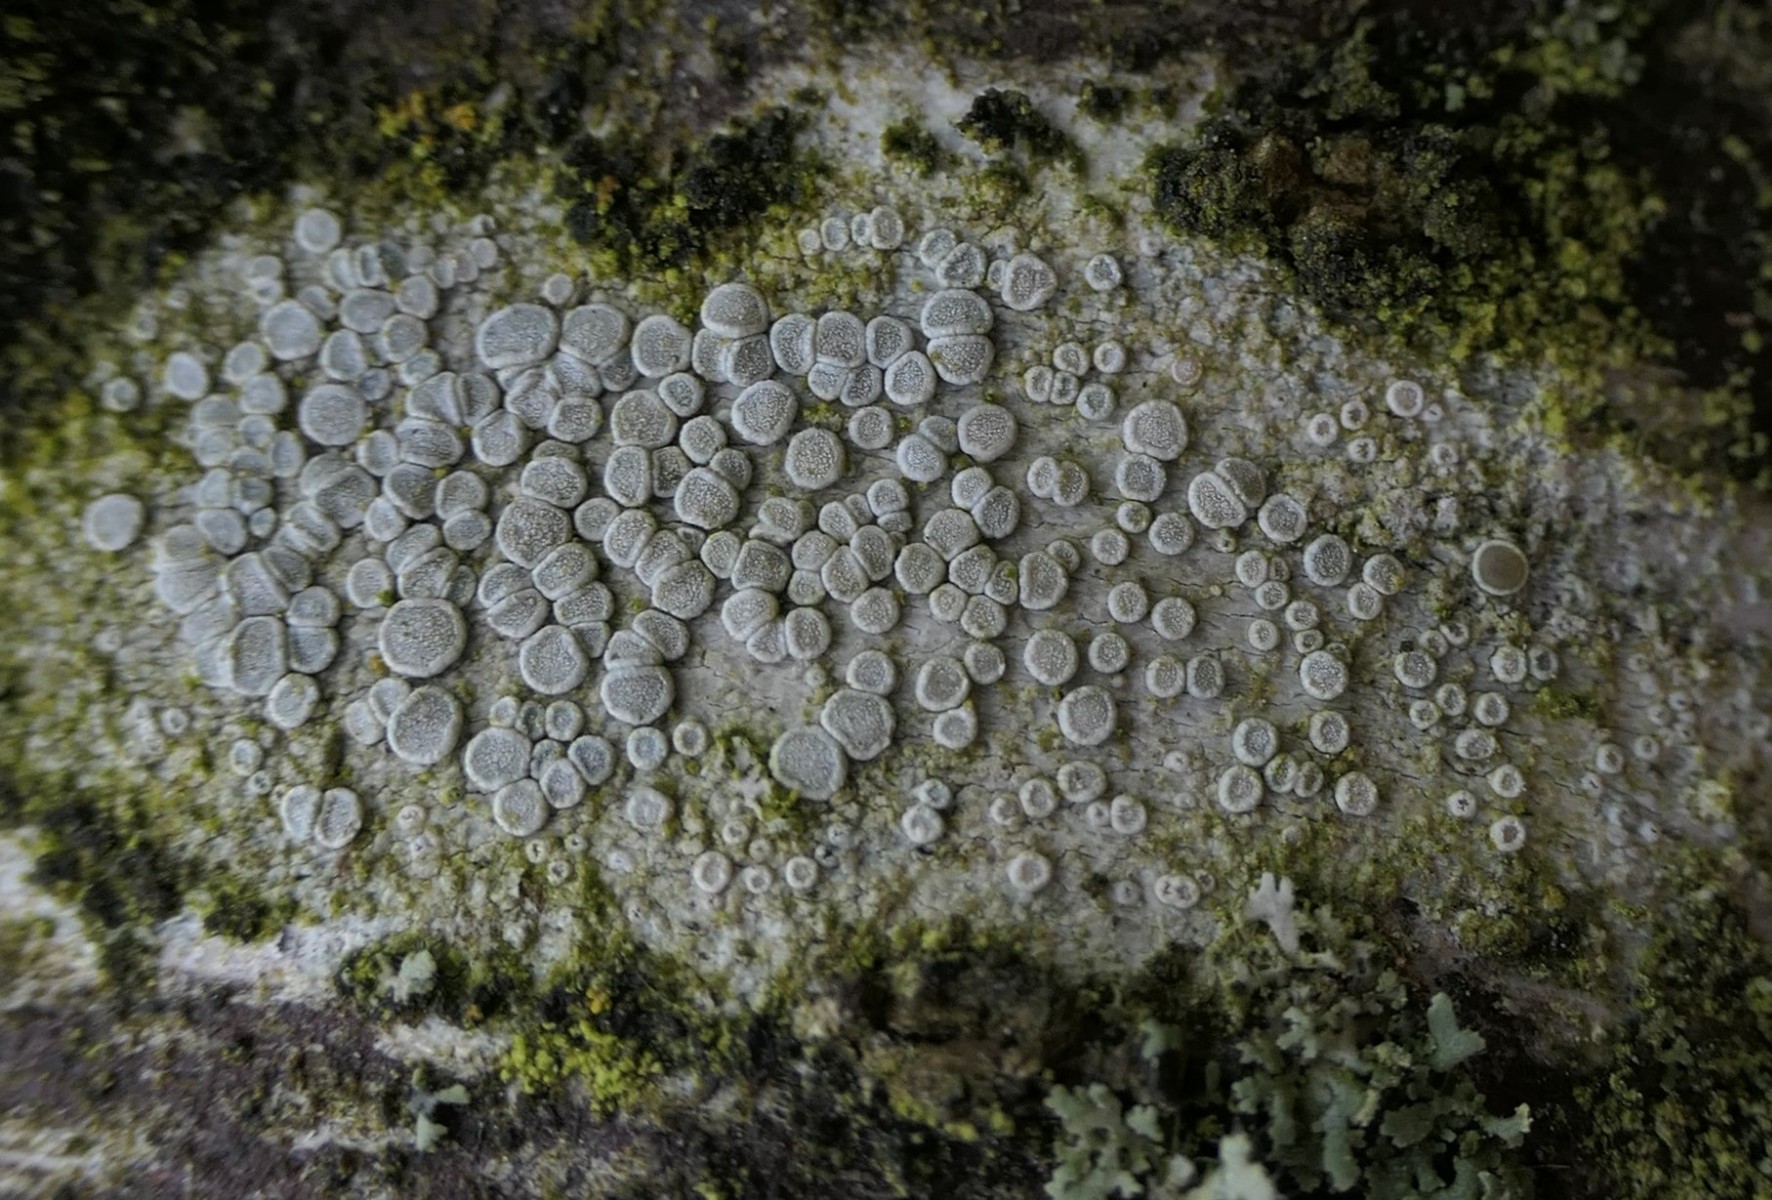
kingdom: Fungi
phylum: Ascomycota
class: Lecanoromycetes
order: Lecanorales
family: Lecanoraceae
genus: Glaucomaria
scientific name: Glaucomaria carpinea
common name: hviddugget kantskivelav
